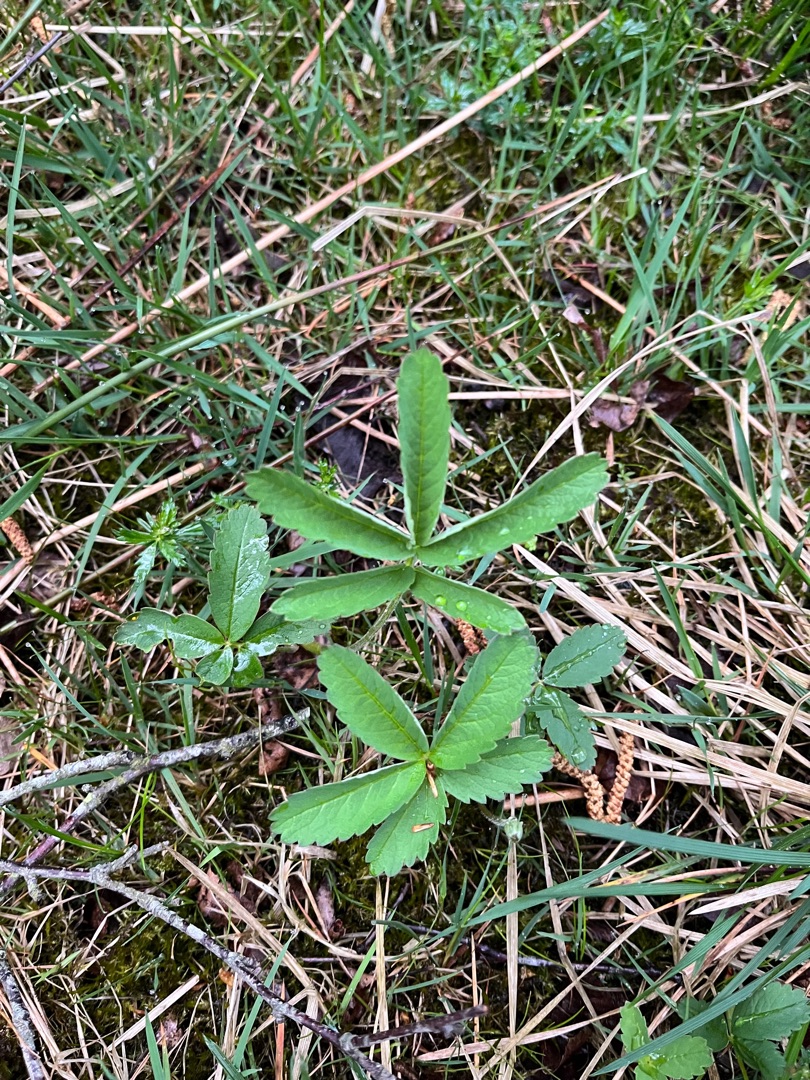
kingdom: Plantae
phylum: Tracheophyta
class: Magnoliopsida
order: Rosales
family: Rosaceae
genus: Comarum
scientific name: Comarum palustre
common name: Kragefod
